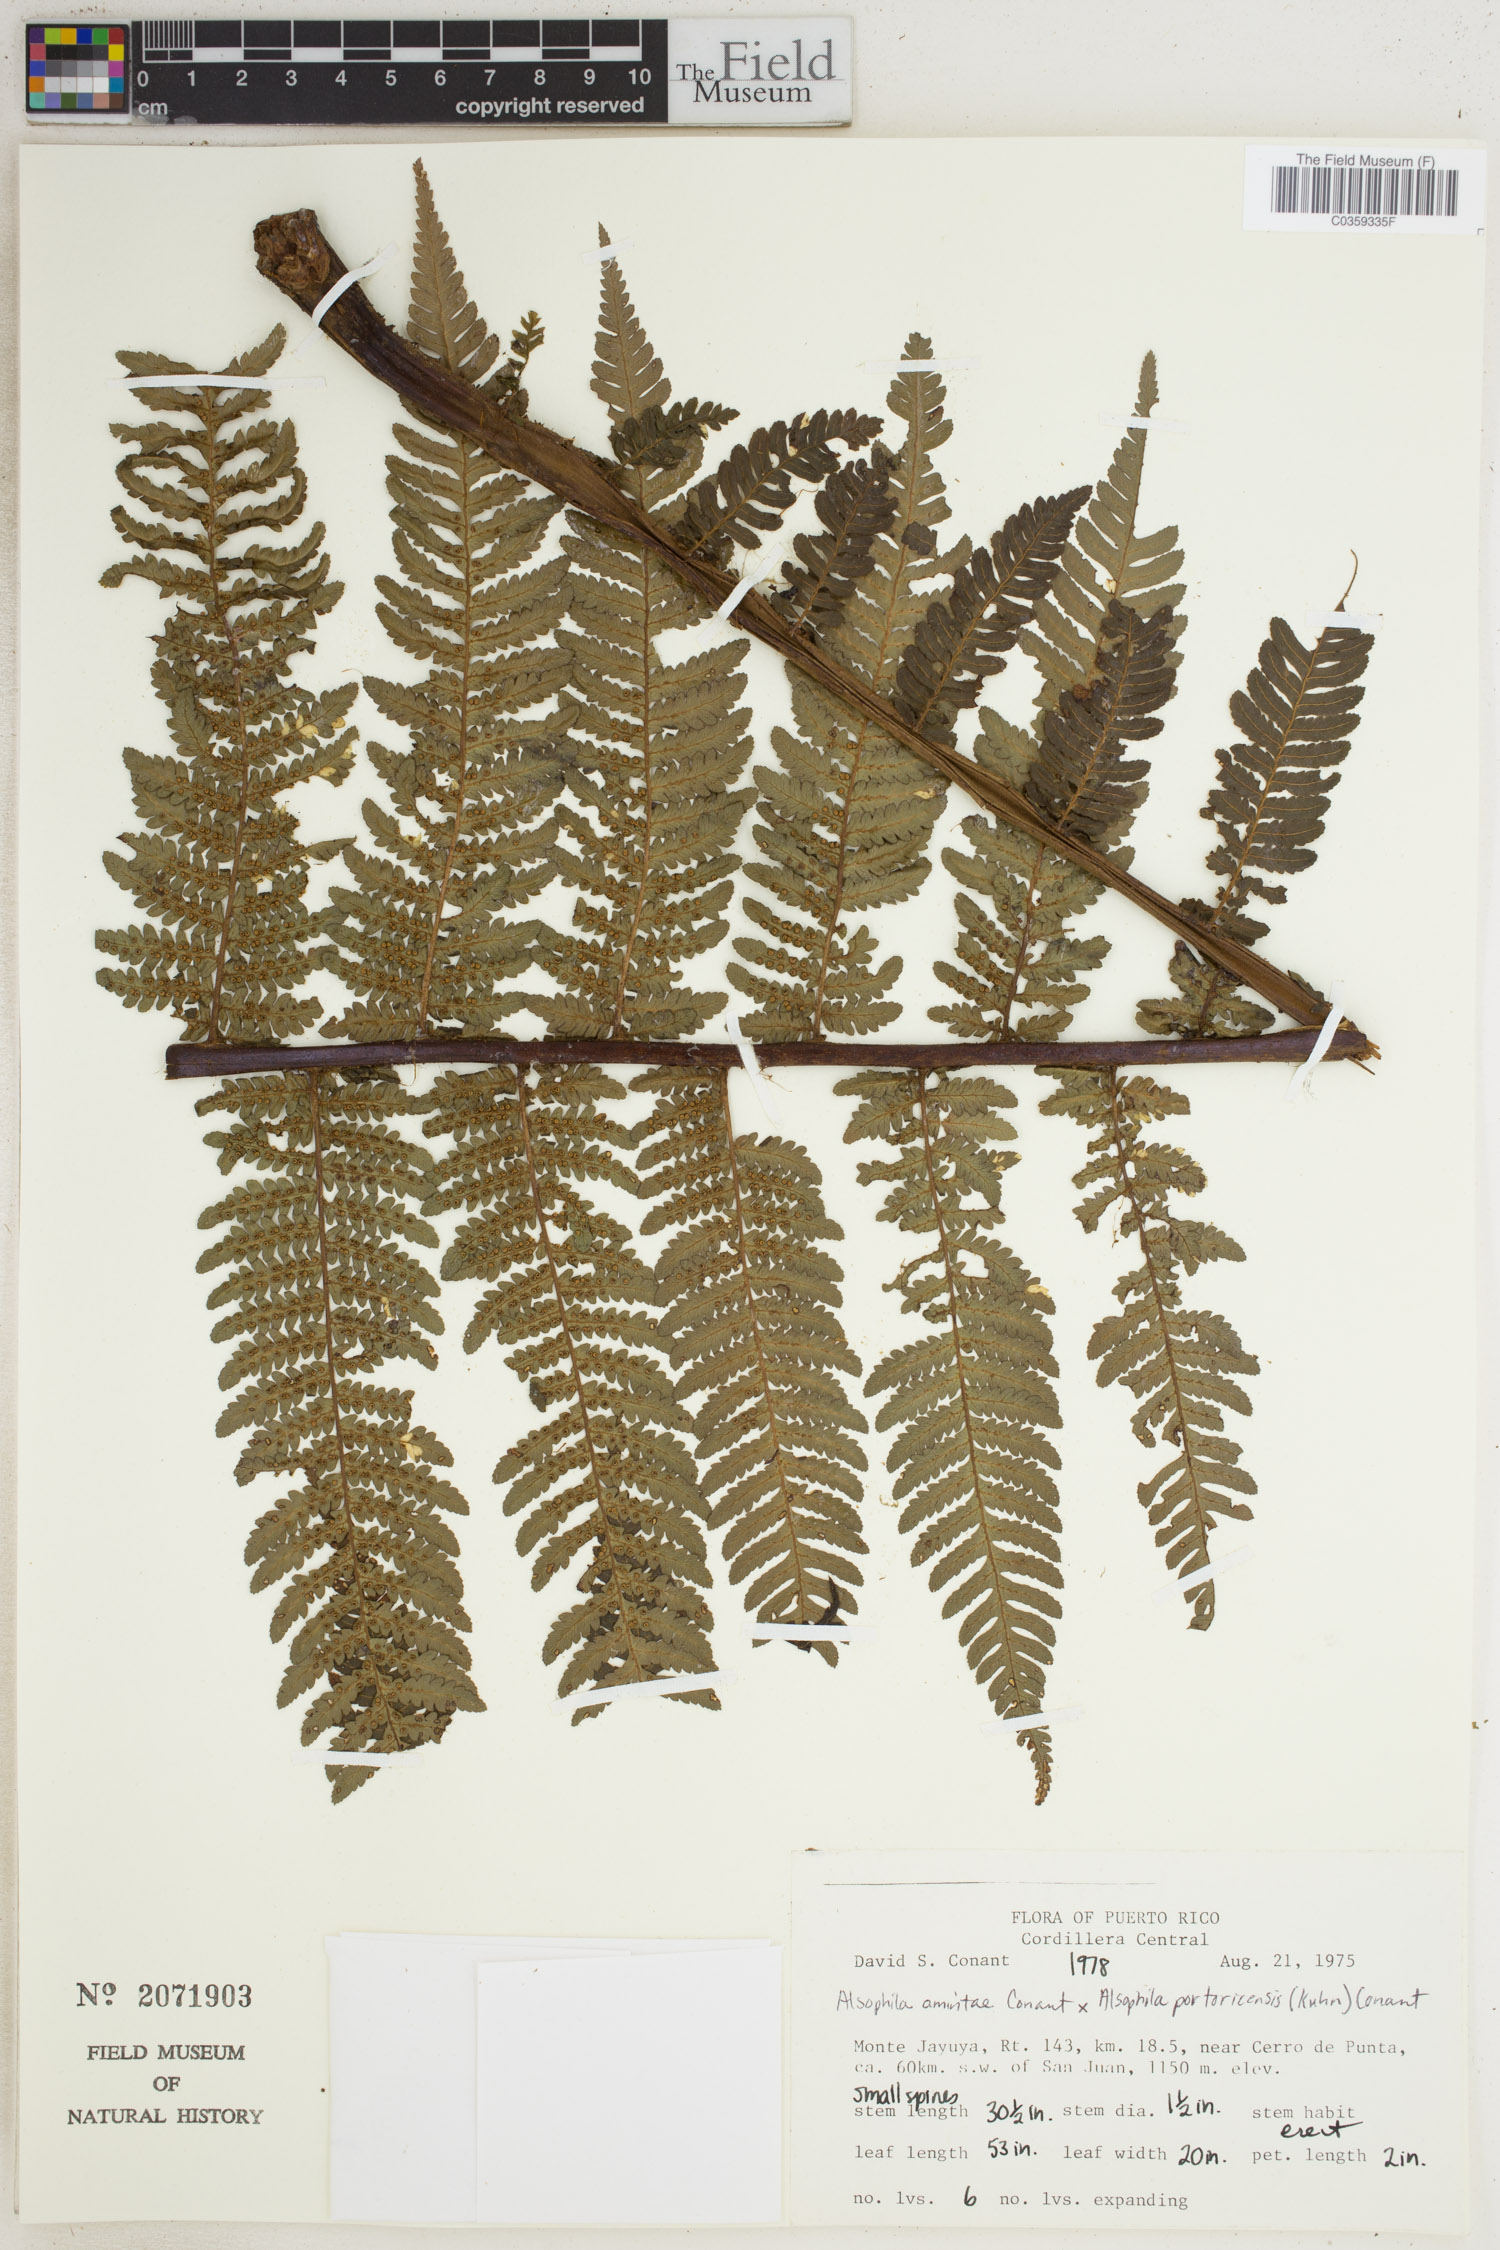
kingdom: Plantae
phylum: Tracheophyta
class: Polypodiopsida
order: Cyatheales
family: Cyatheaceae
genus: Alsophila
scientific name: Alsophila
